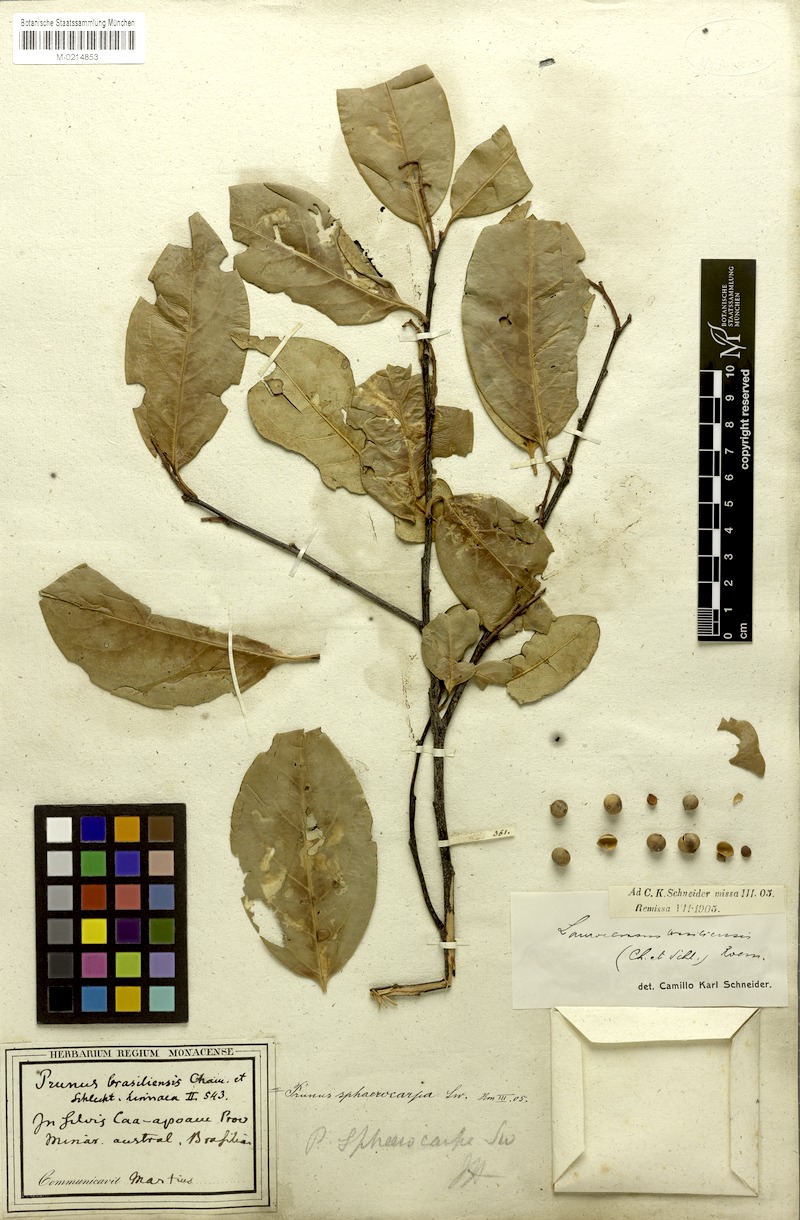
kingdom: Plantae
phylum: Tracheophyta
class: Magnoliopsida
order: Rosales
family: Rosaceae
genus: Prunus
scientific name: Prunus brasiliensis
